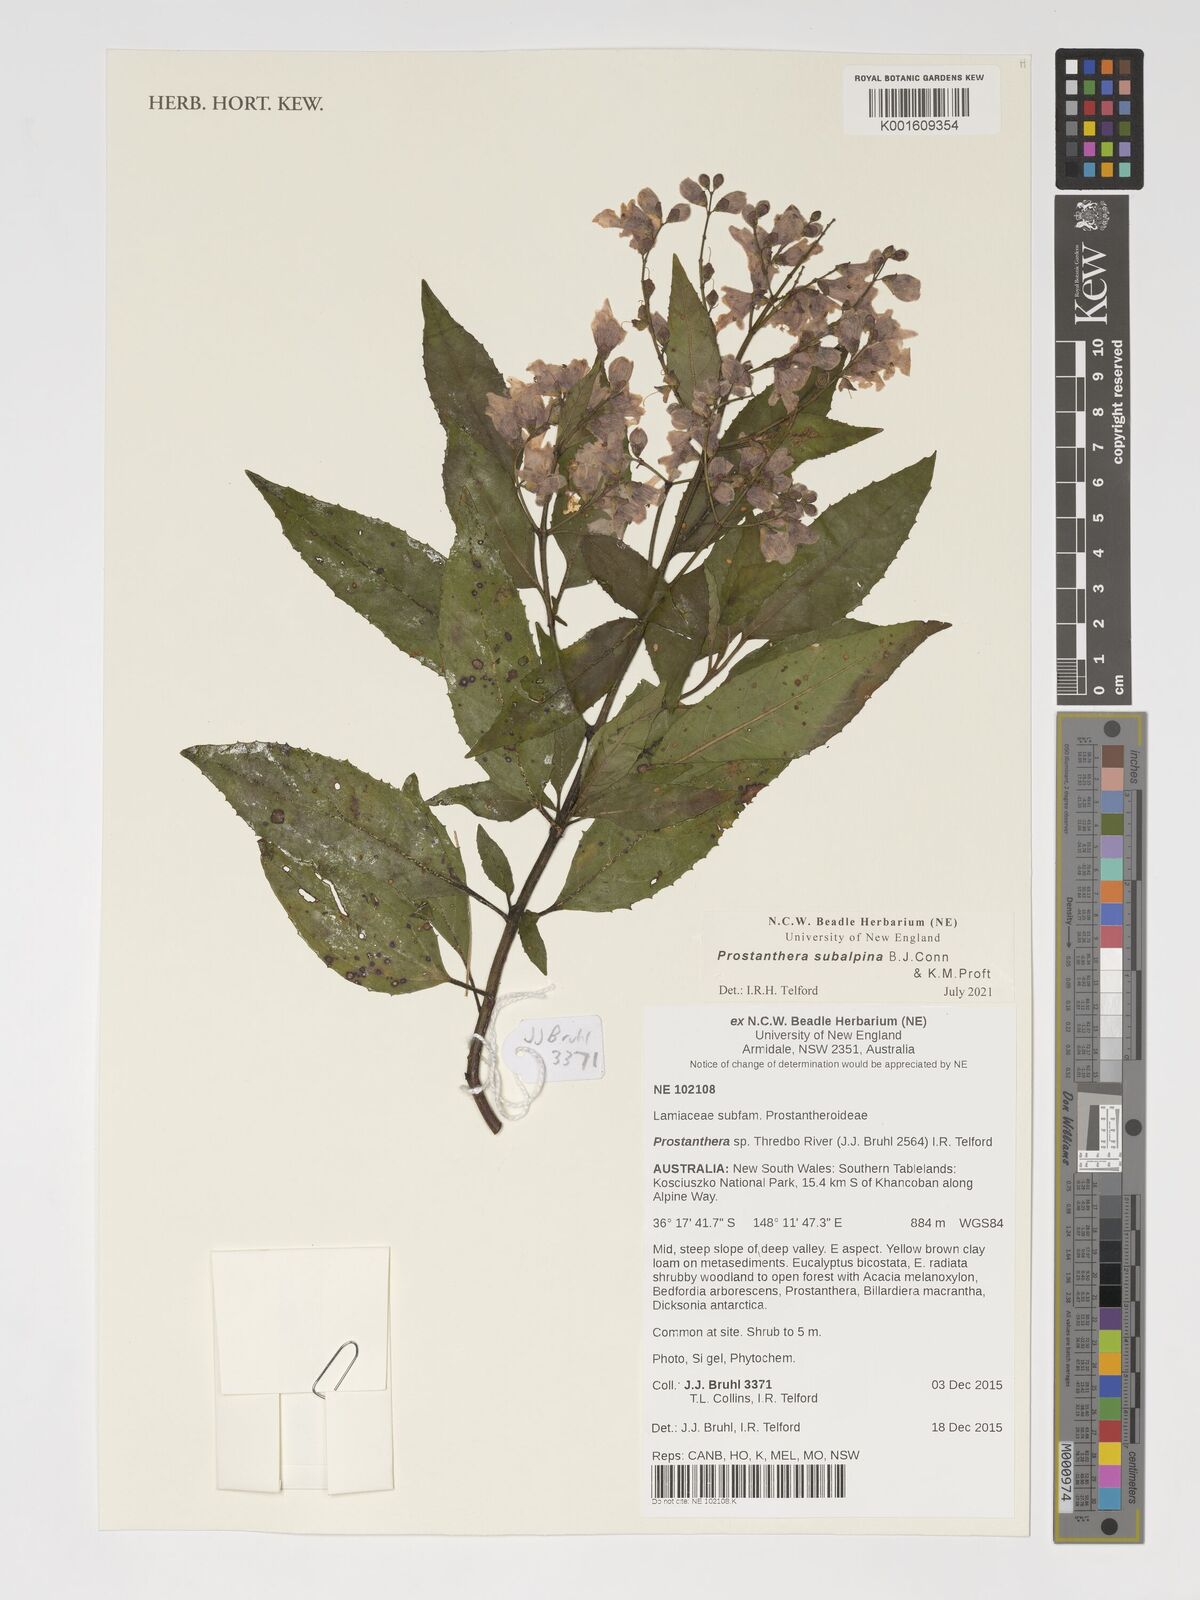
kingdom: Plantae
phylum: Tracheophyta
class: Magnoliopsida
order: Lamiales
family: Lamiaceae
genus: Prostanthera
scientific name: Prostanthera
